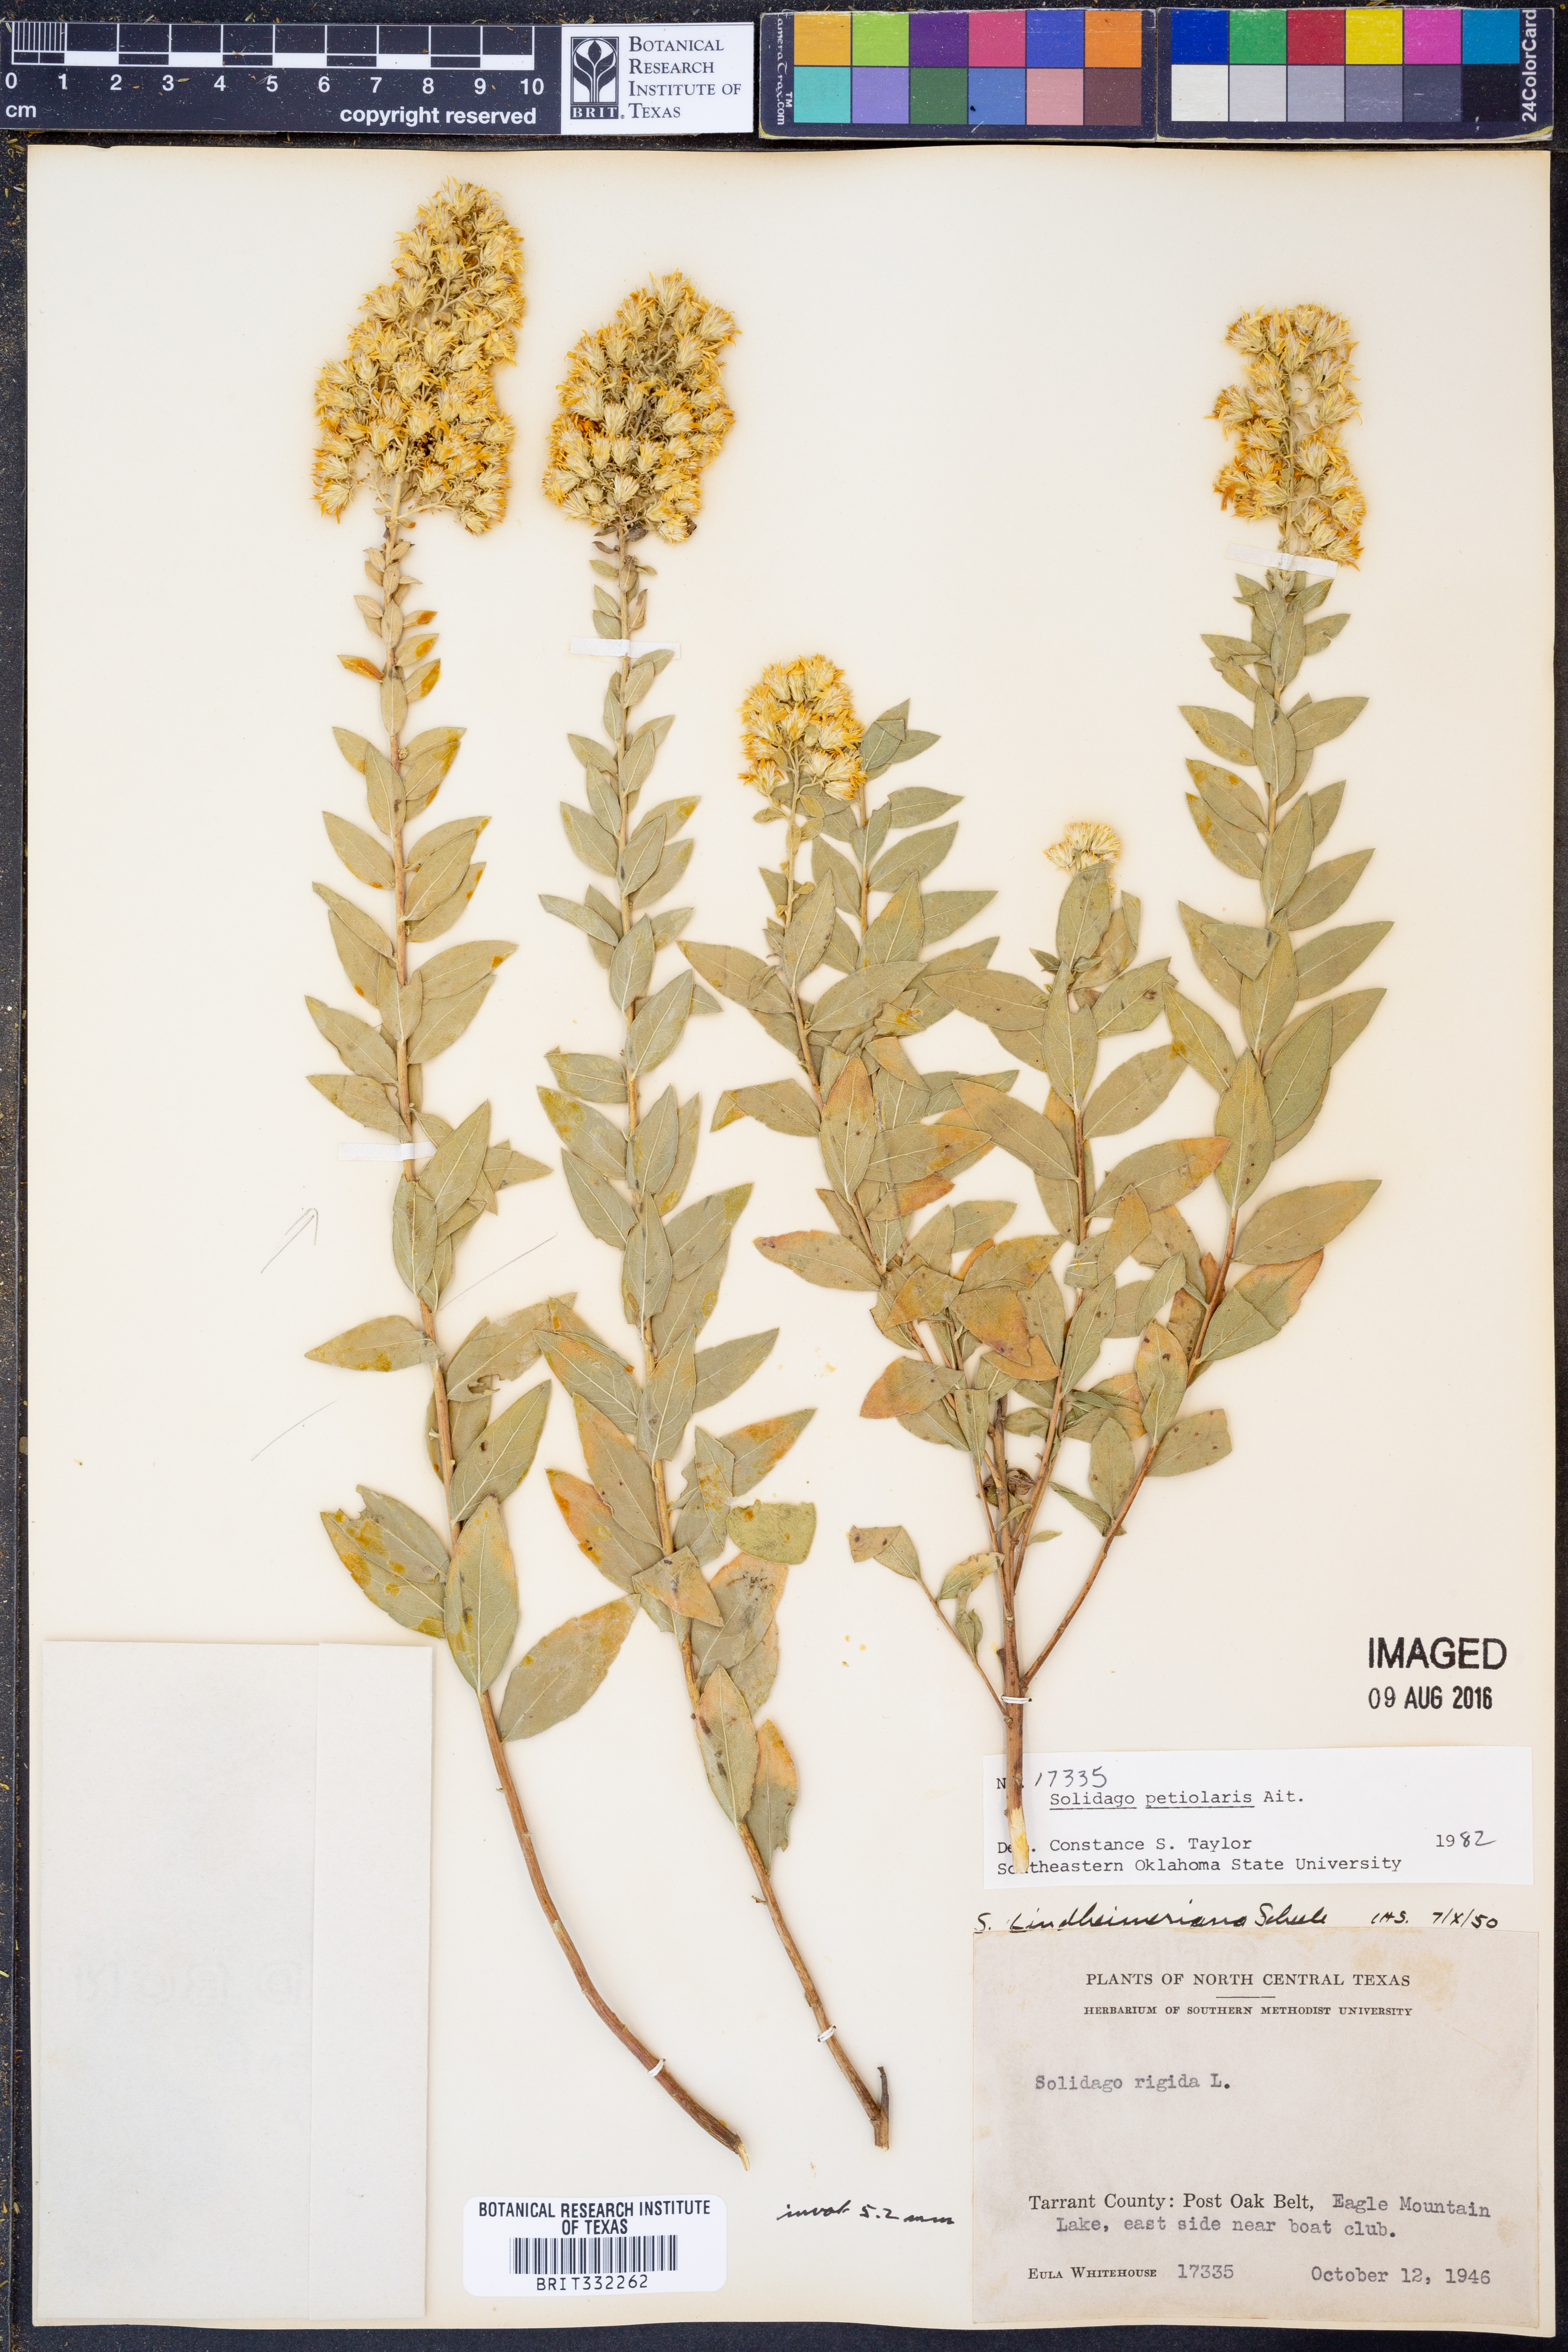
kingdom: Plantae
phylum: Tracheophyta
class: Magnoliopsida
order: Asterales
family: Asteraceae
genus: Solidago
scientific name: Solidago petiolaris
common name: Downy ragged goldenrod
